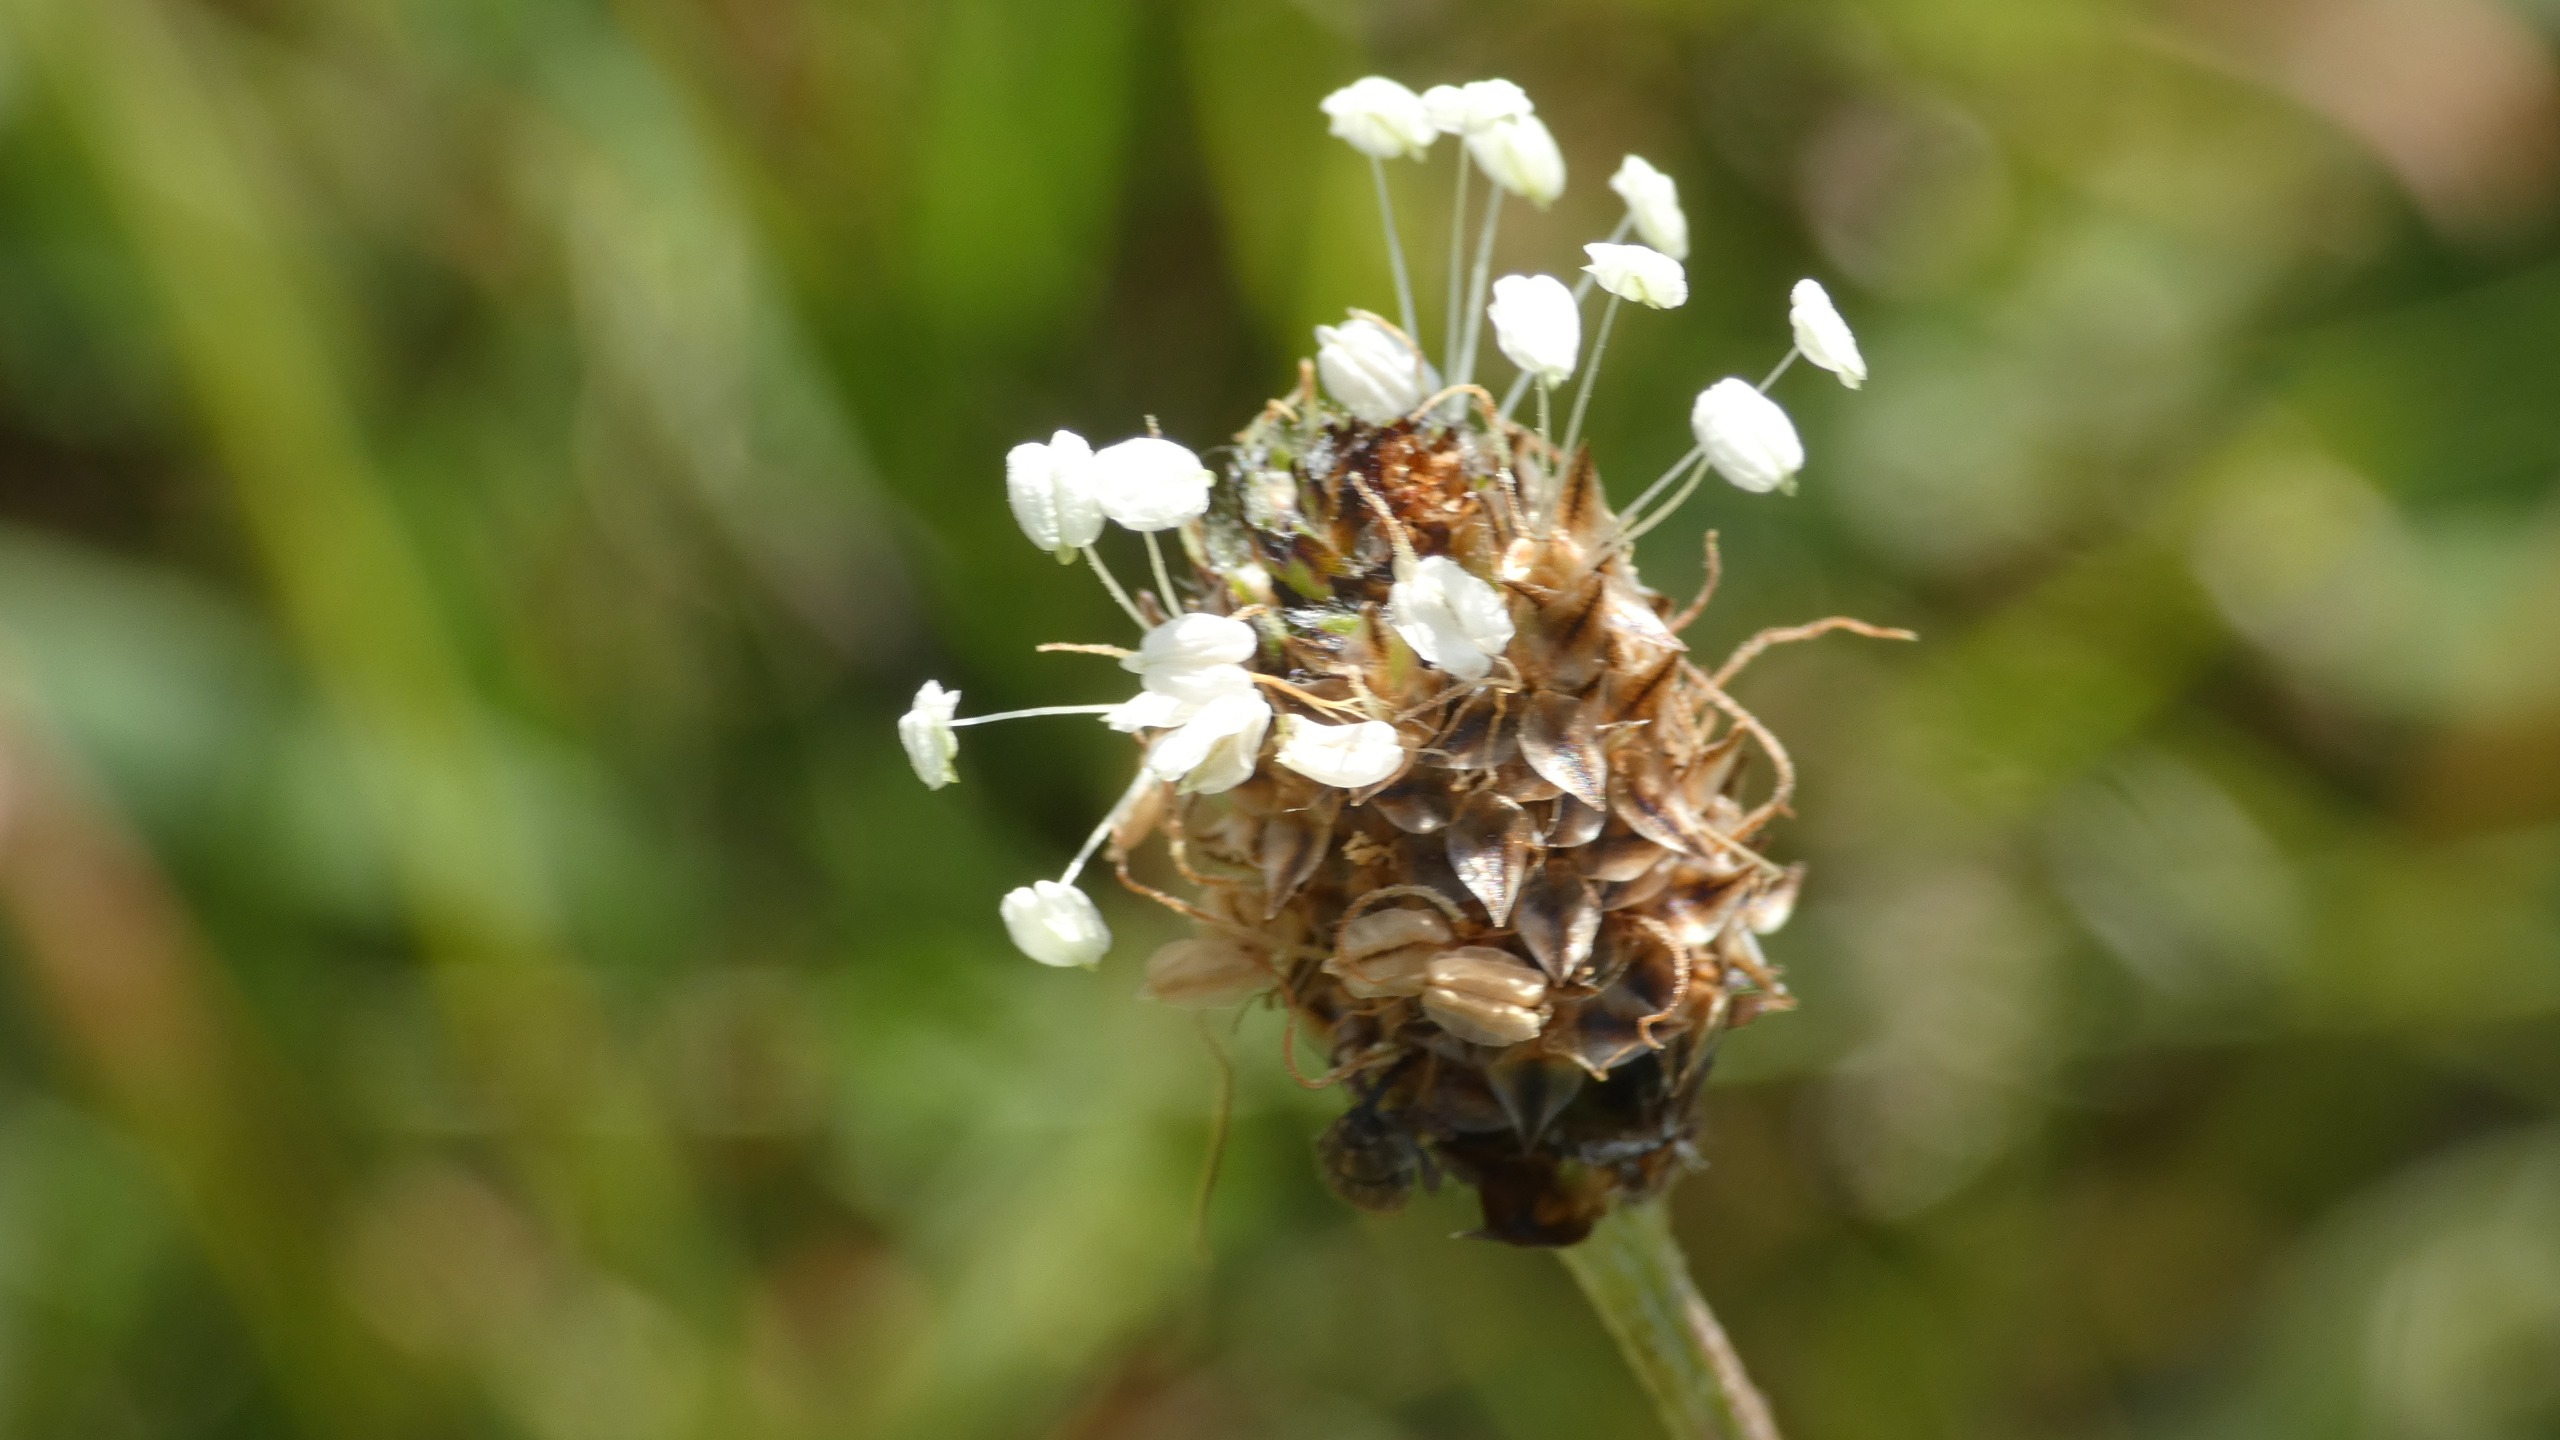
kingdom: Plantae
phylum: Tracheophyta
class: Magnoliopsida
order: Lamiales
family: Plantaginaceae
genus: Plantago
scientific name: Plantago lanceolata
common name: Lancet-vejbred
